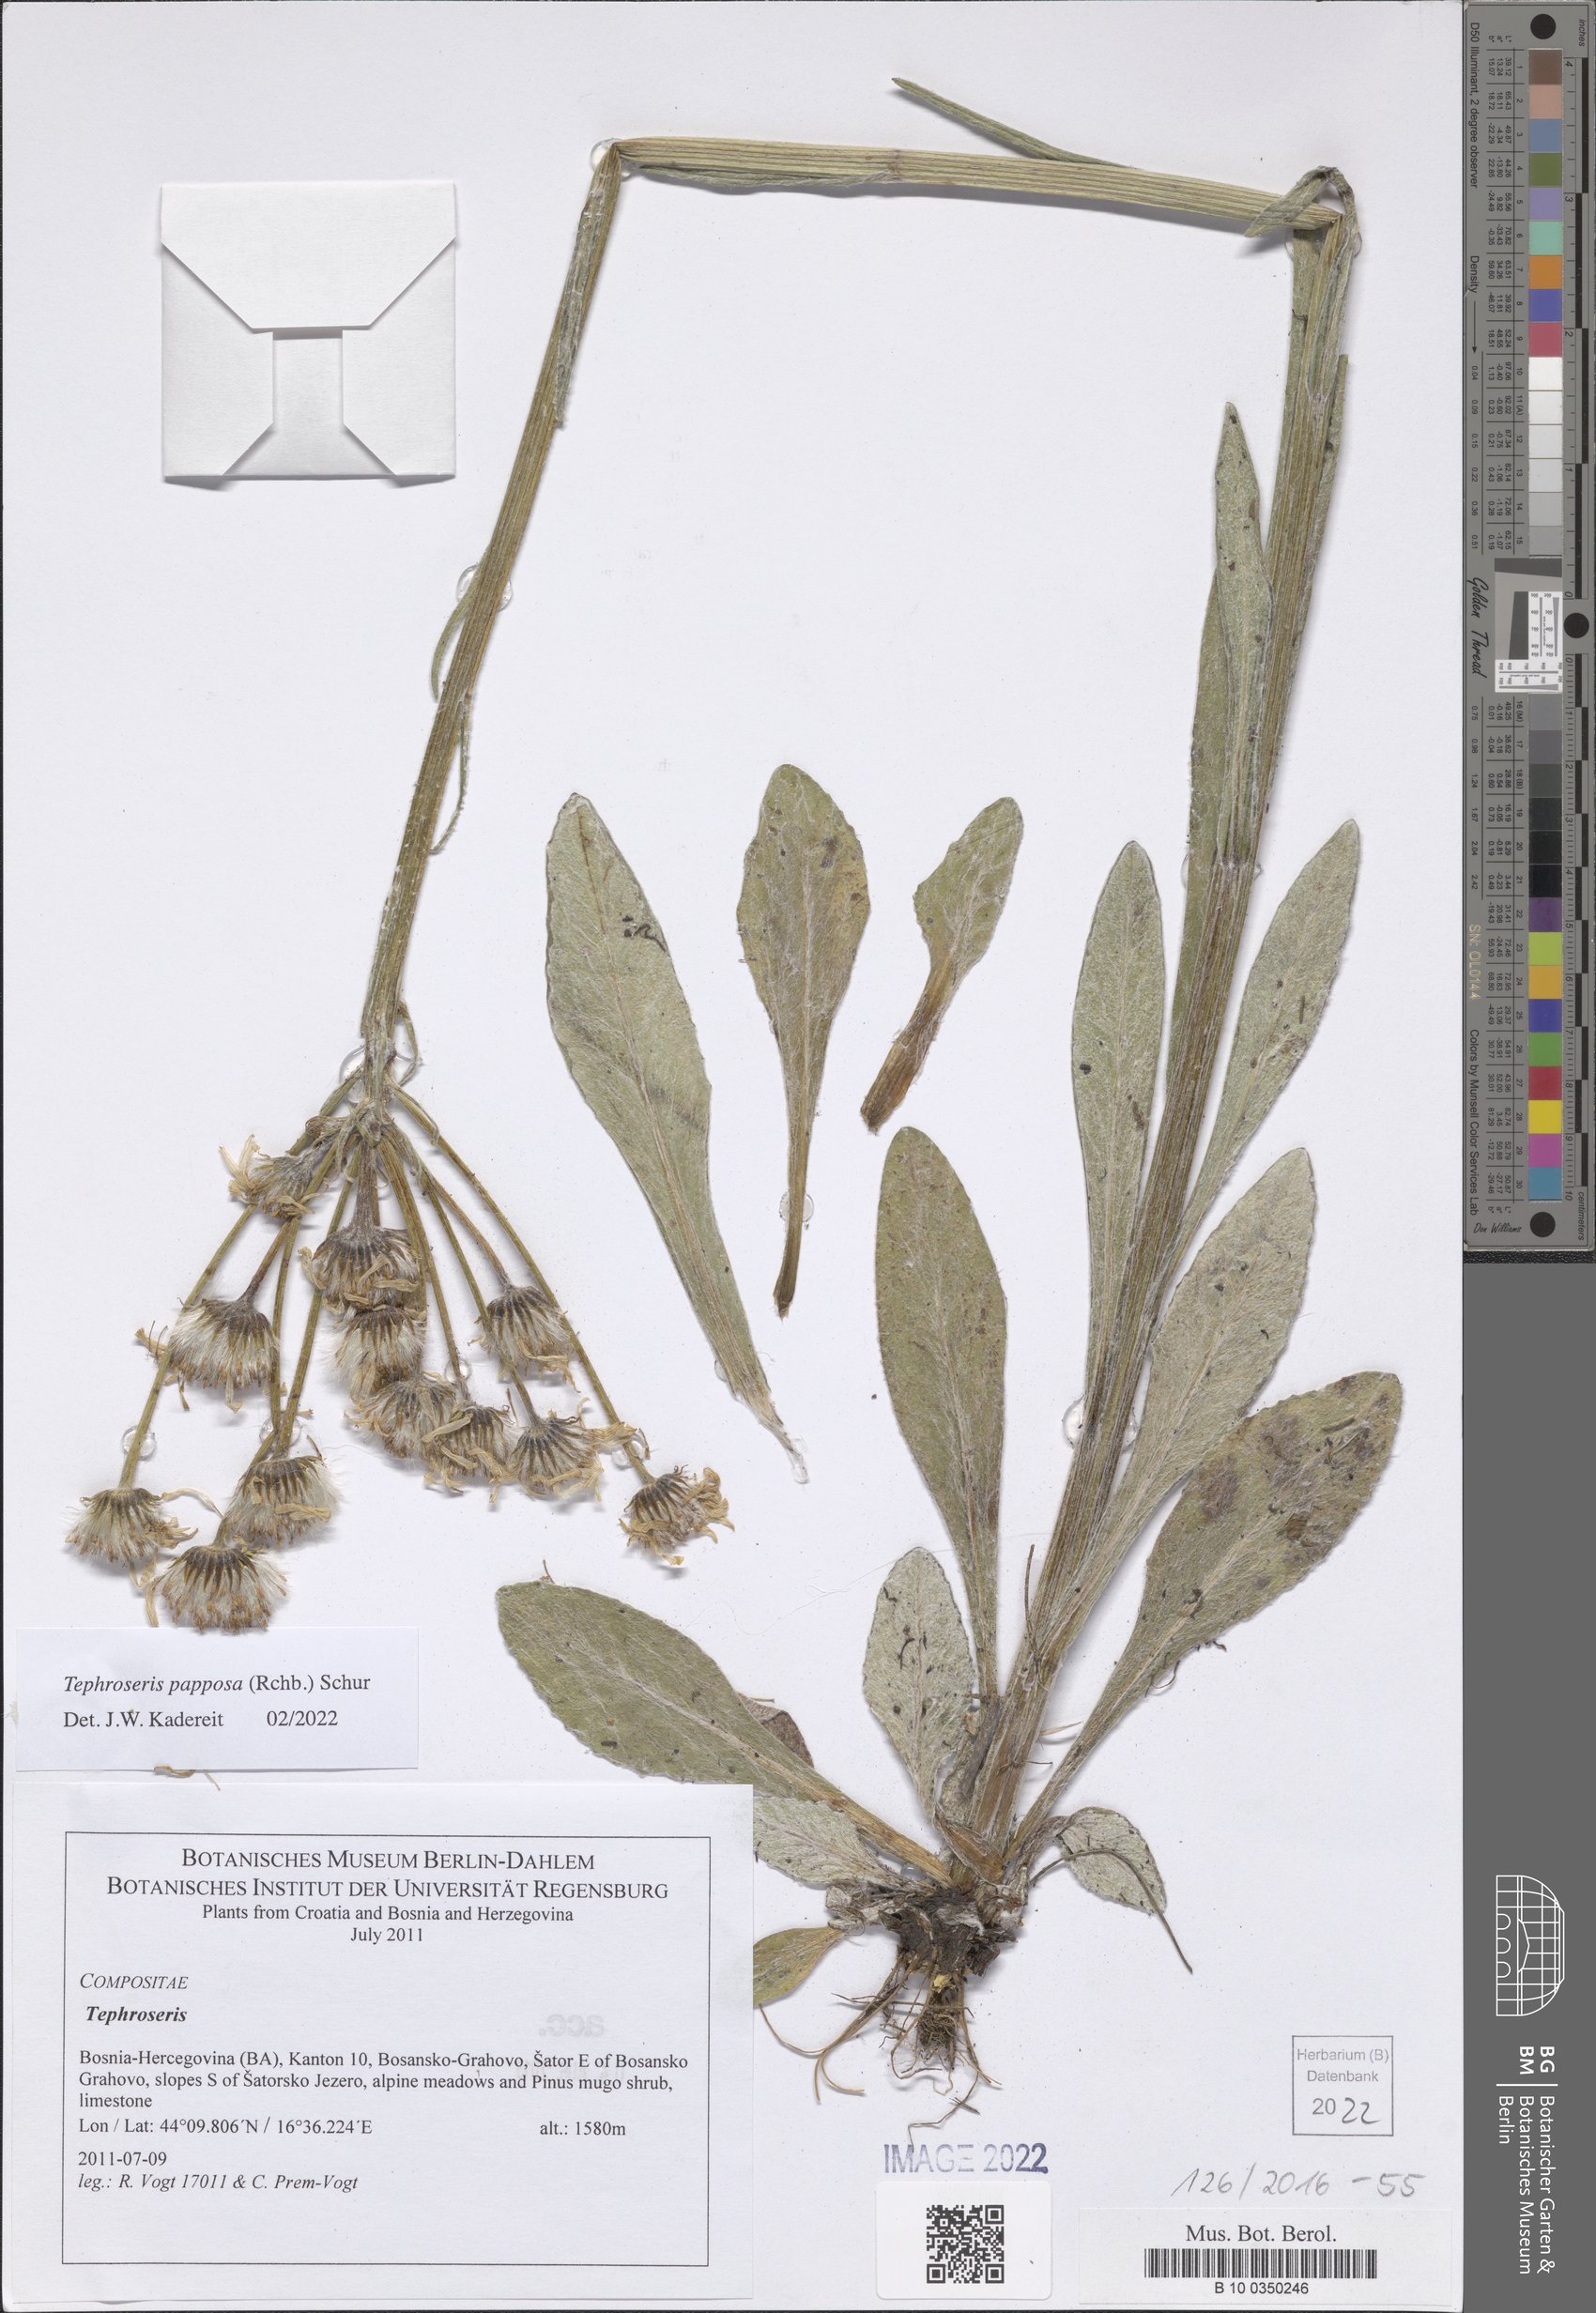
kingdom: Plantae
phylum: Tracheophyta
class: Magnoliopsida
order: Asterales
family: Asteraceae
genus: Tephroseris
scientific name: Tephroseris papposa
